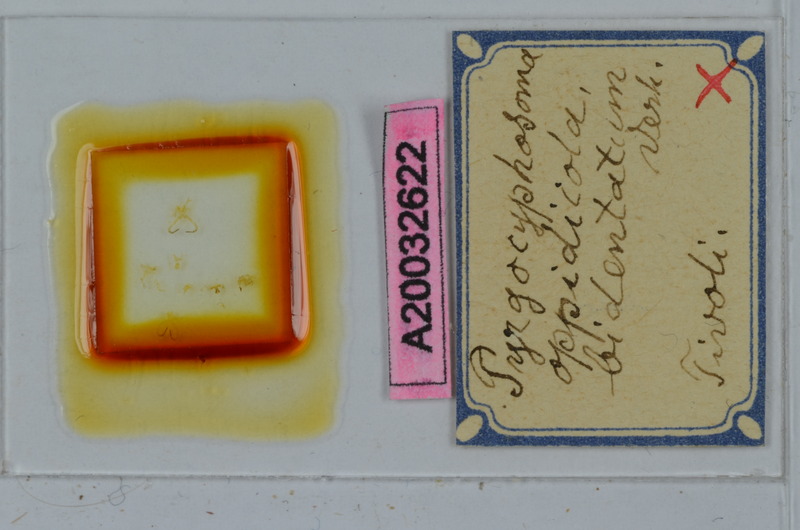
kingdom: Animalia
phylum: Arthropoda
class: Diplopoda
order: Chordeumatida
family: Craspedosomatidae
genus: Pyrgocyphosoma
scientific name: Pyrgocyphosoma bidentatum
